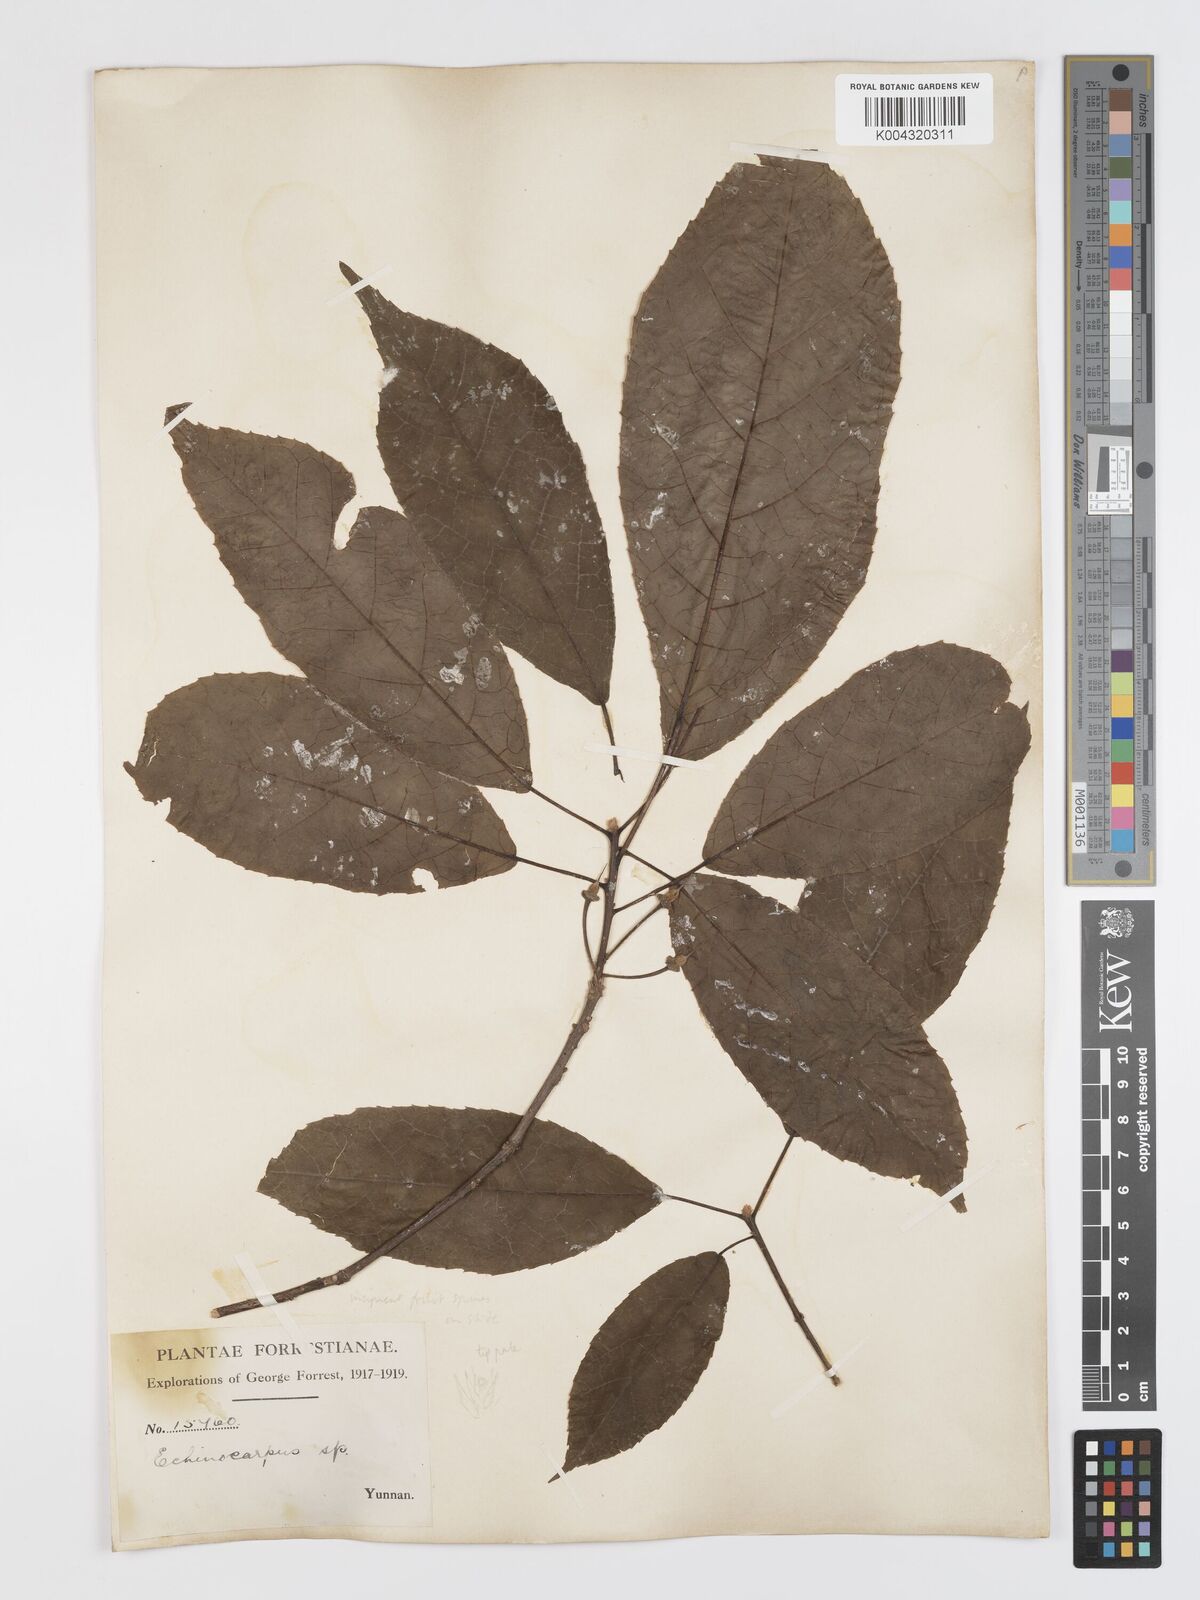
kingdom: Plantae
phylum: Tracheophyta
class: Magnoliopsida
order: Oxalidales
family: Elaeocarpaceae
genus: Sloanea
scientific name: Sloanea sterculiacea
